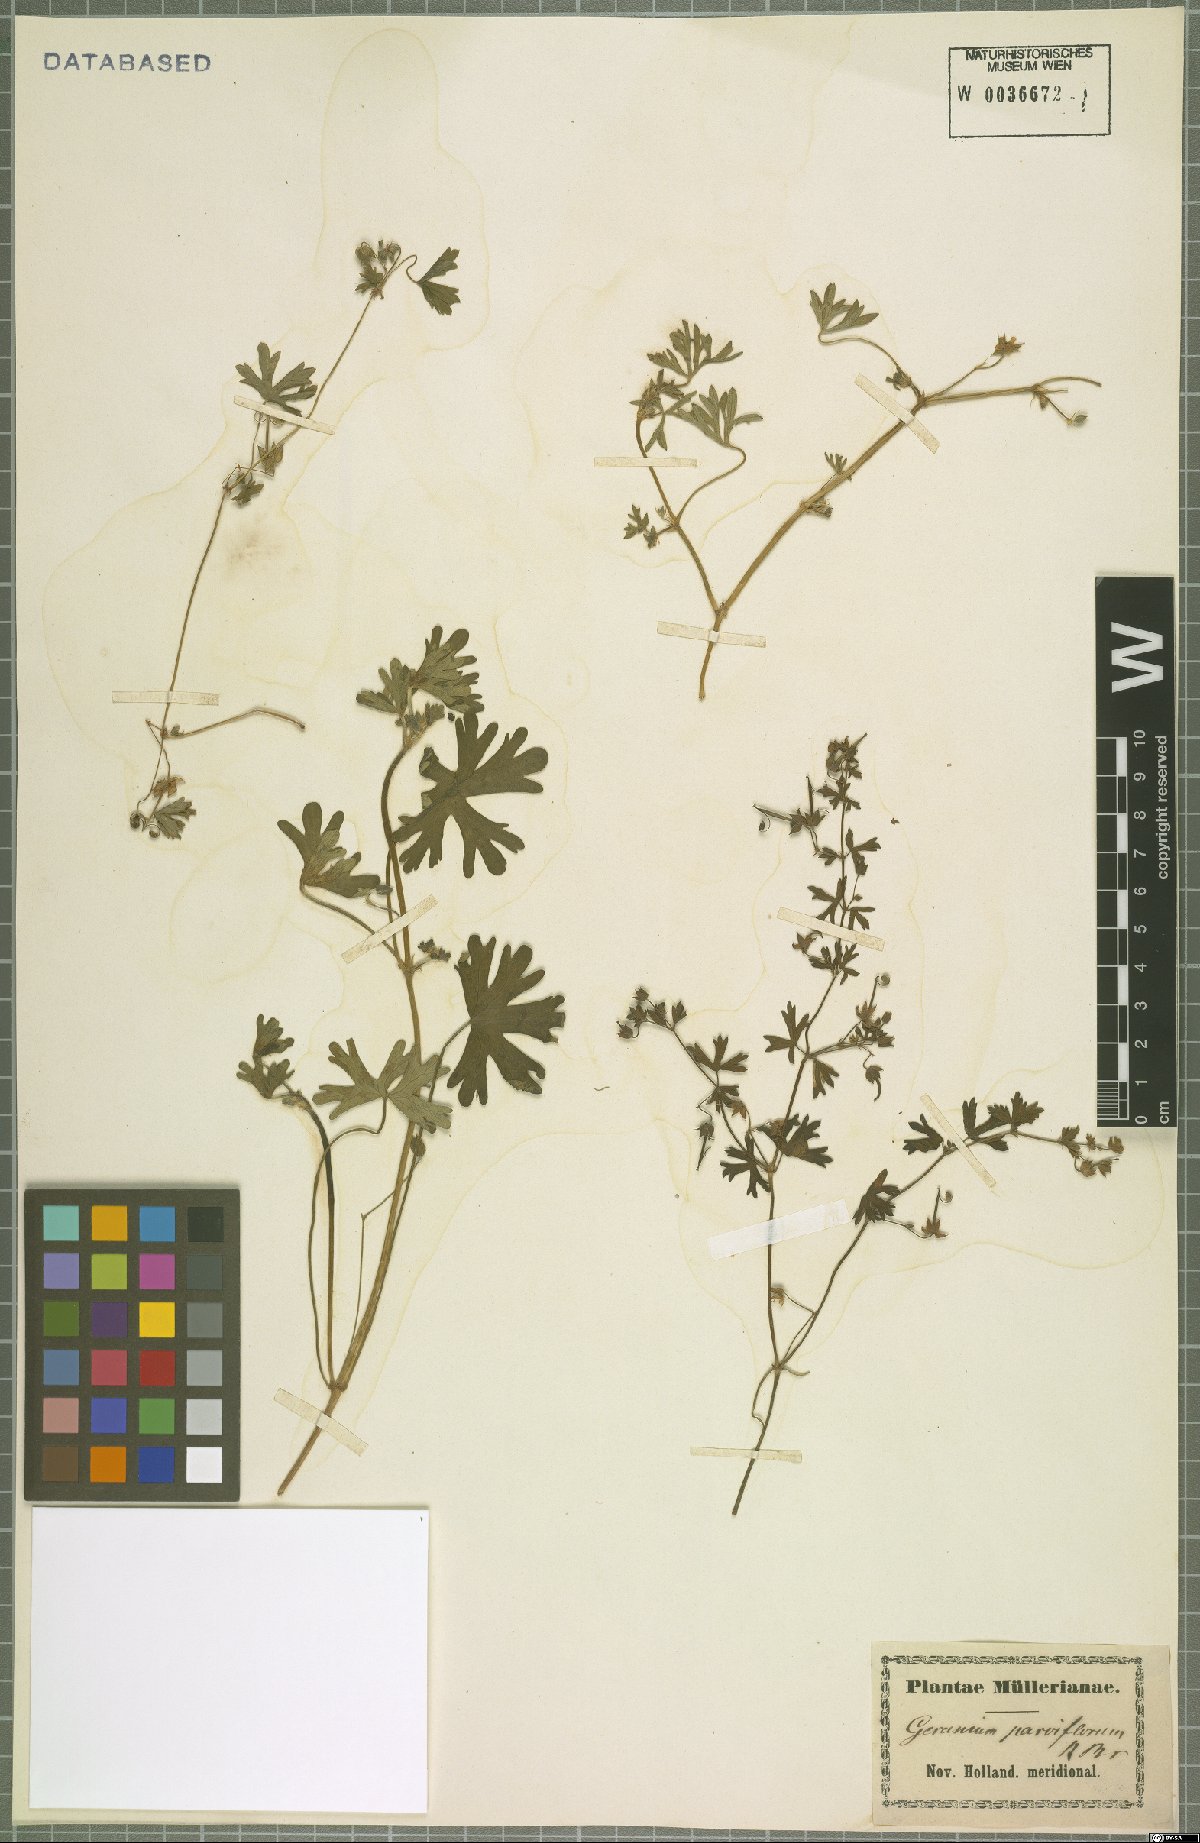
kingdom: Plantae
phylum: Tracheophyta
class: Magnoliopsida
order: Geraniales
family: Geraniaceae
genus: Geranium
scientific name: Geranium retrorsum
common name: New zealand geranium
